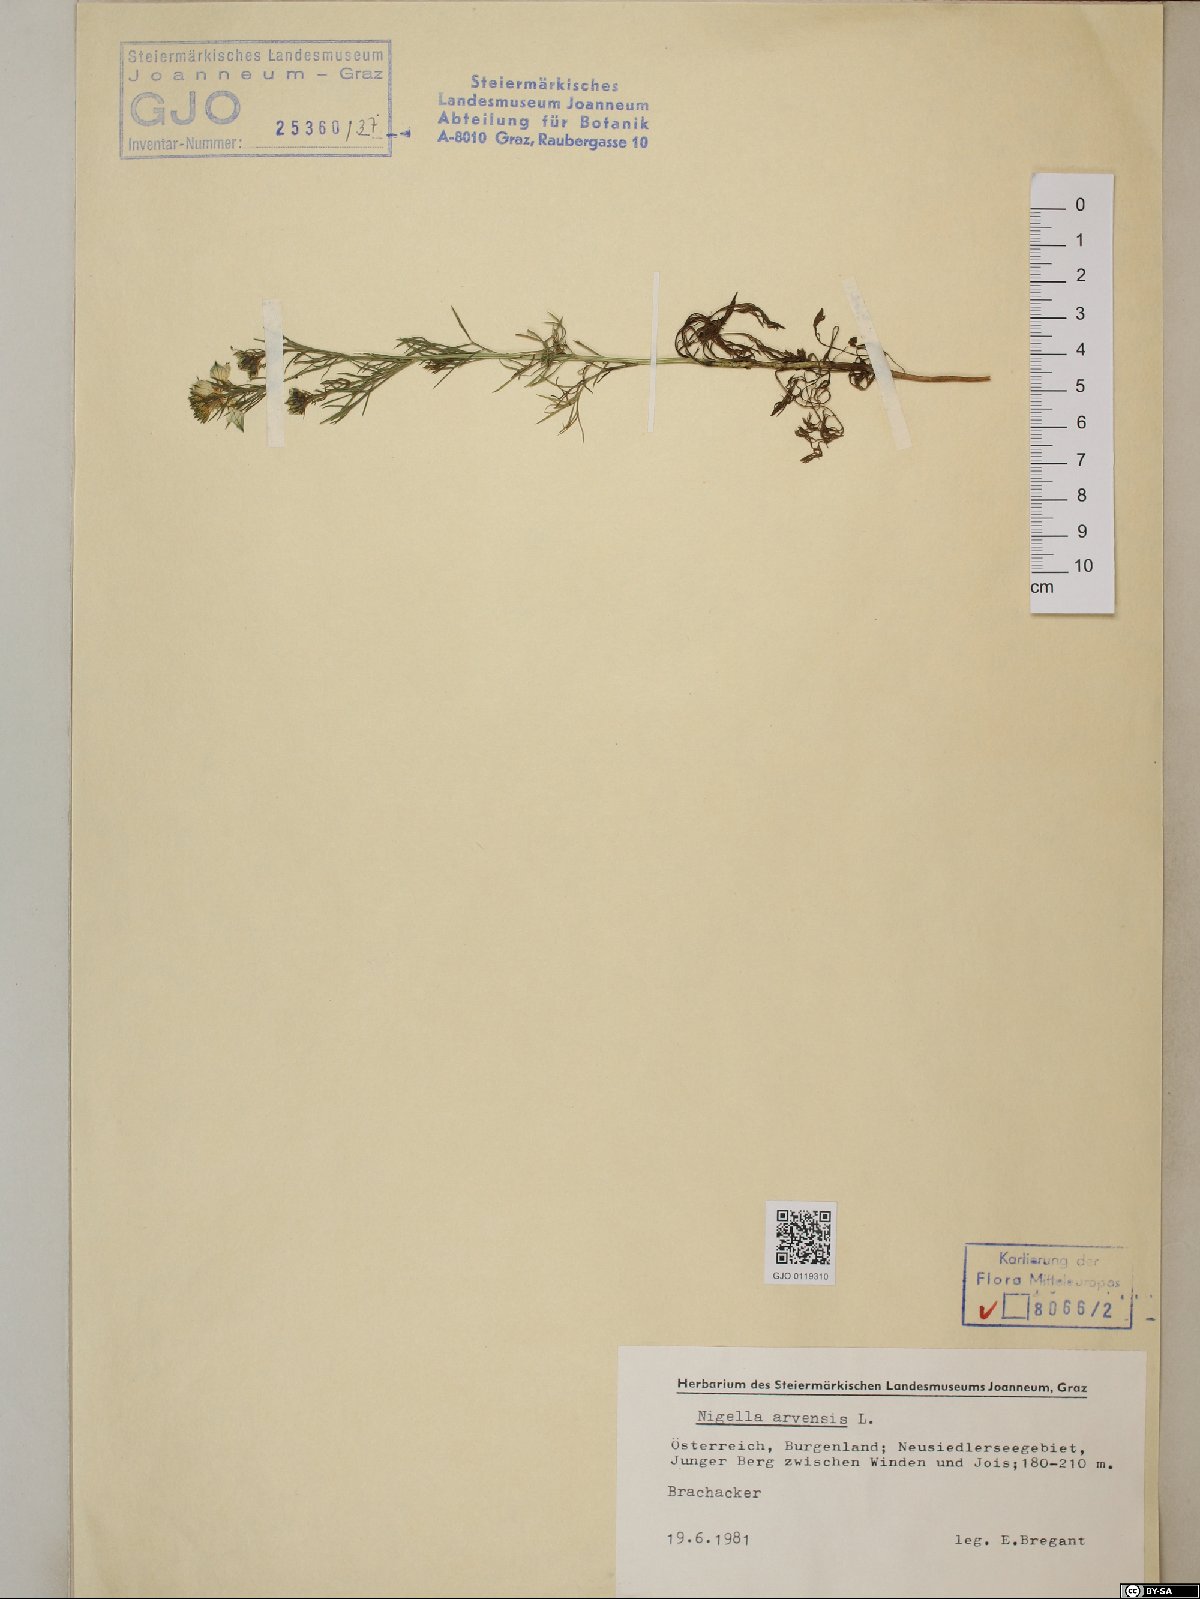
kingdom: Plantae
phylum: Tracheophyta
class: Magnoliopsida
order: Ranunculales
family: Ranunculaceae
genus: Nigella
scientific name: Nigella arvensis
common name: Wild fennel-flower
